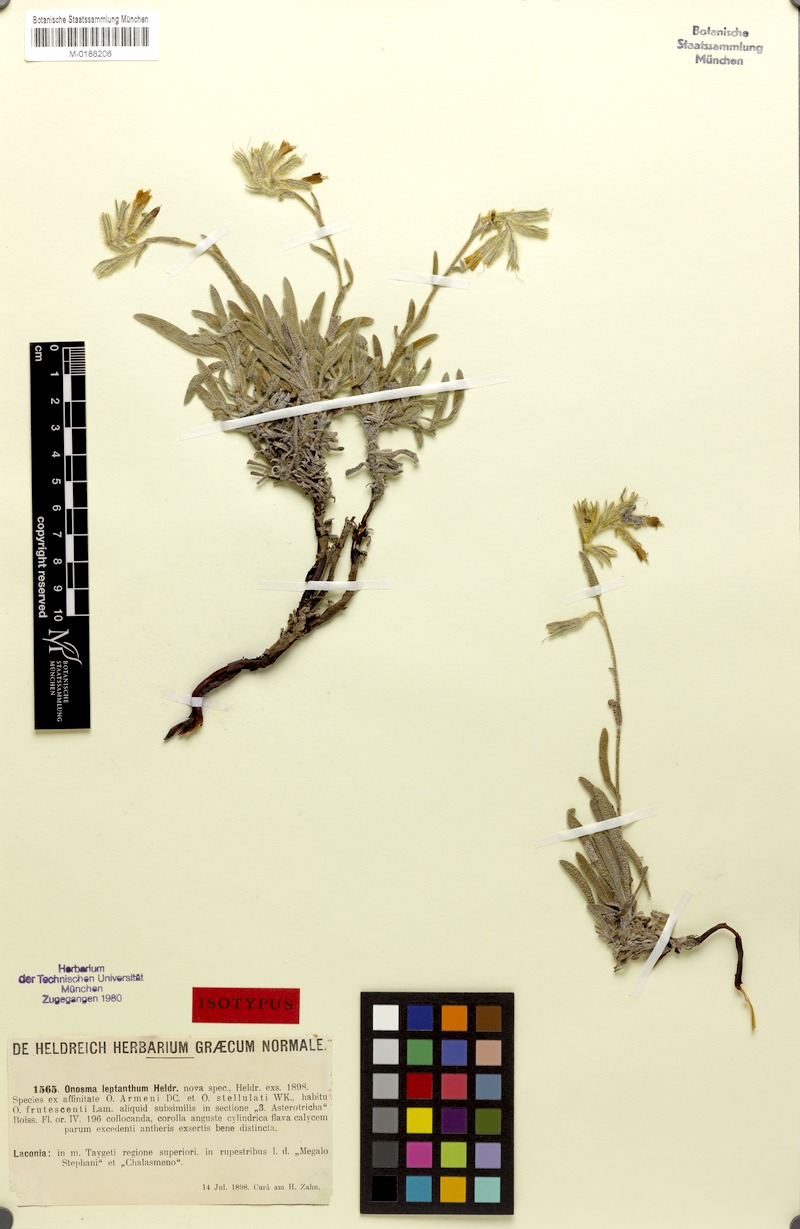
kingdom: Plantae
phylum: Tracheophyta
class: Magnoliopsida
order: Boraginales
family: Boraginaceae
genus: Onosma
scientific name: Onosma leptantha
